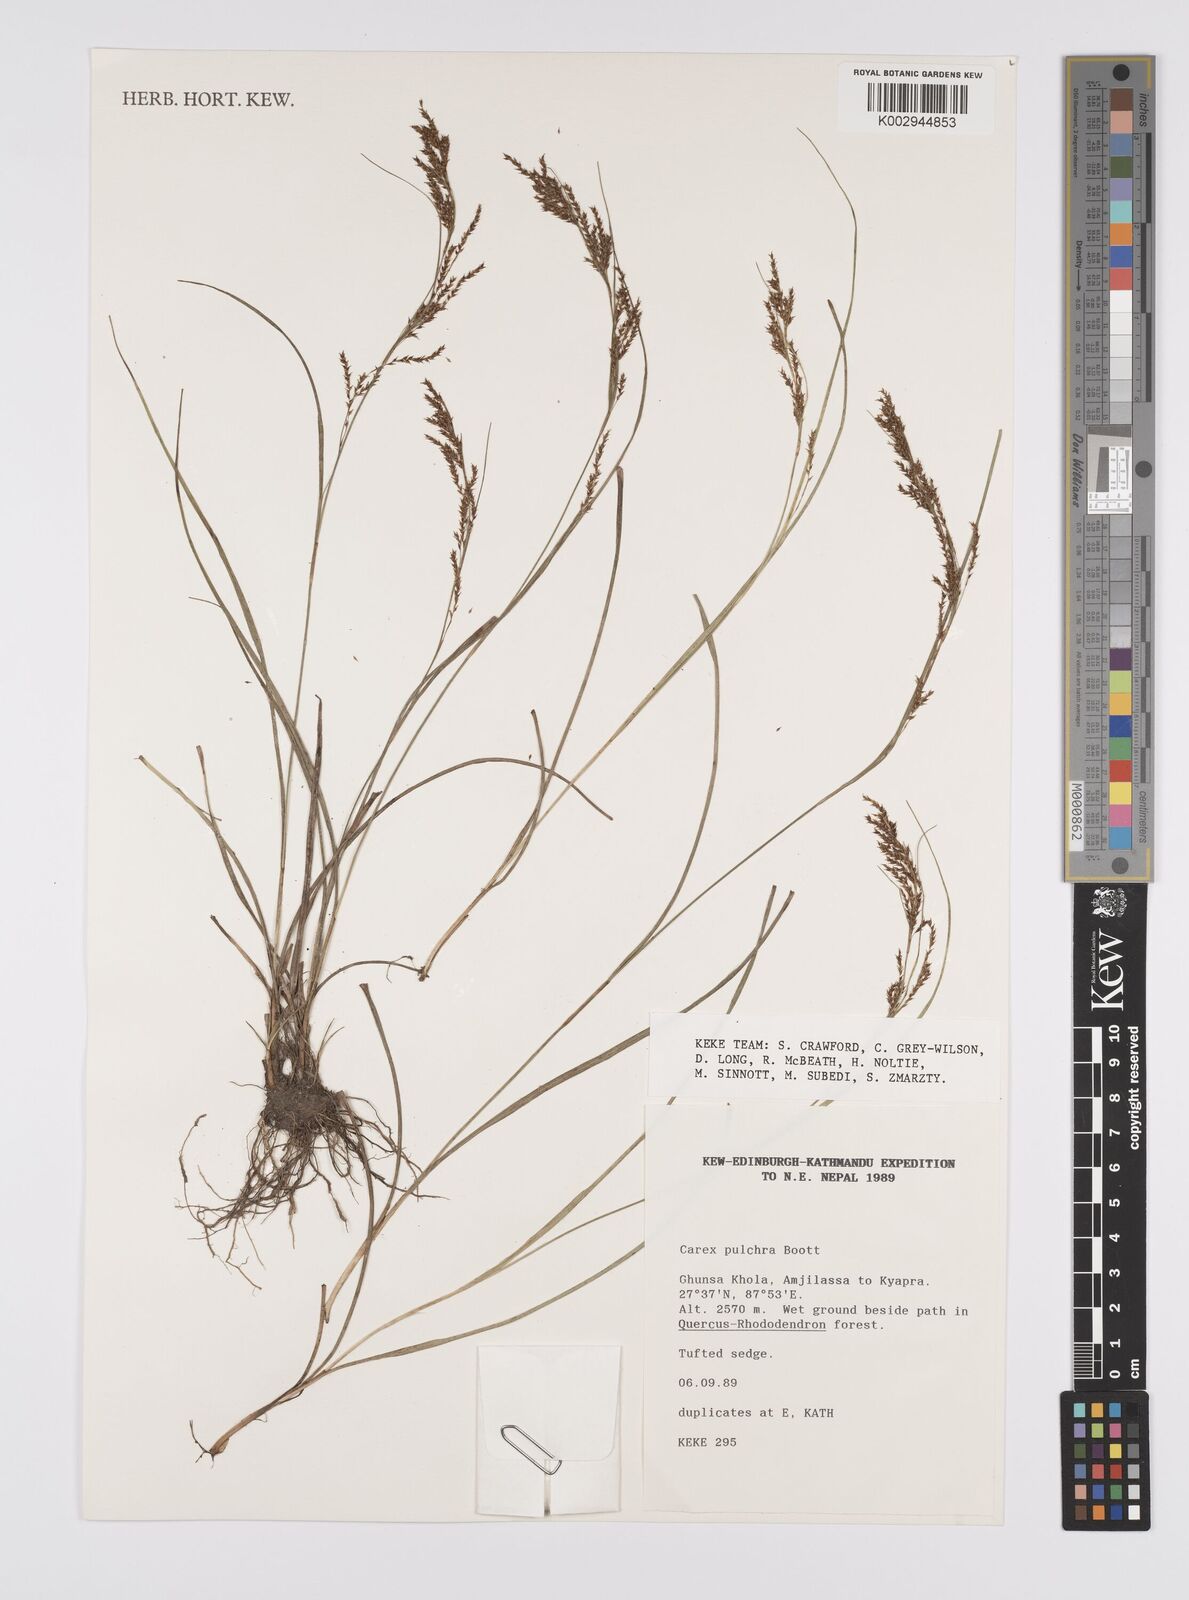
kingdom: Plantae
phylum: Tracheophyta
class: Liliopsida
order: Poales
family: Cyperaceae
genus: Carex
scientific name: Carex pulchra
